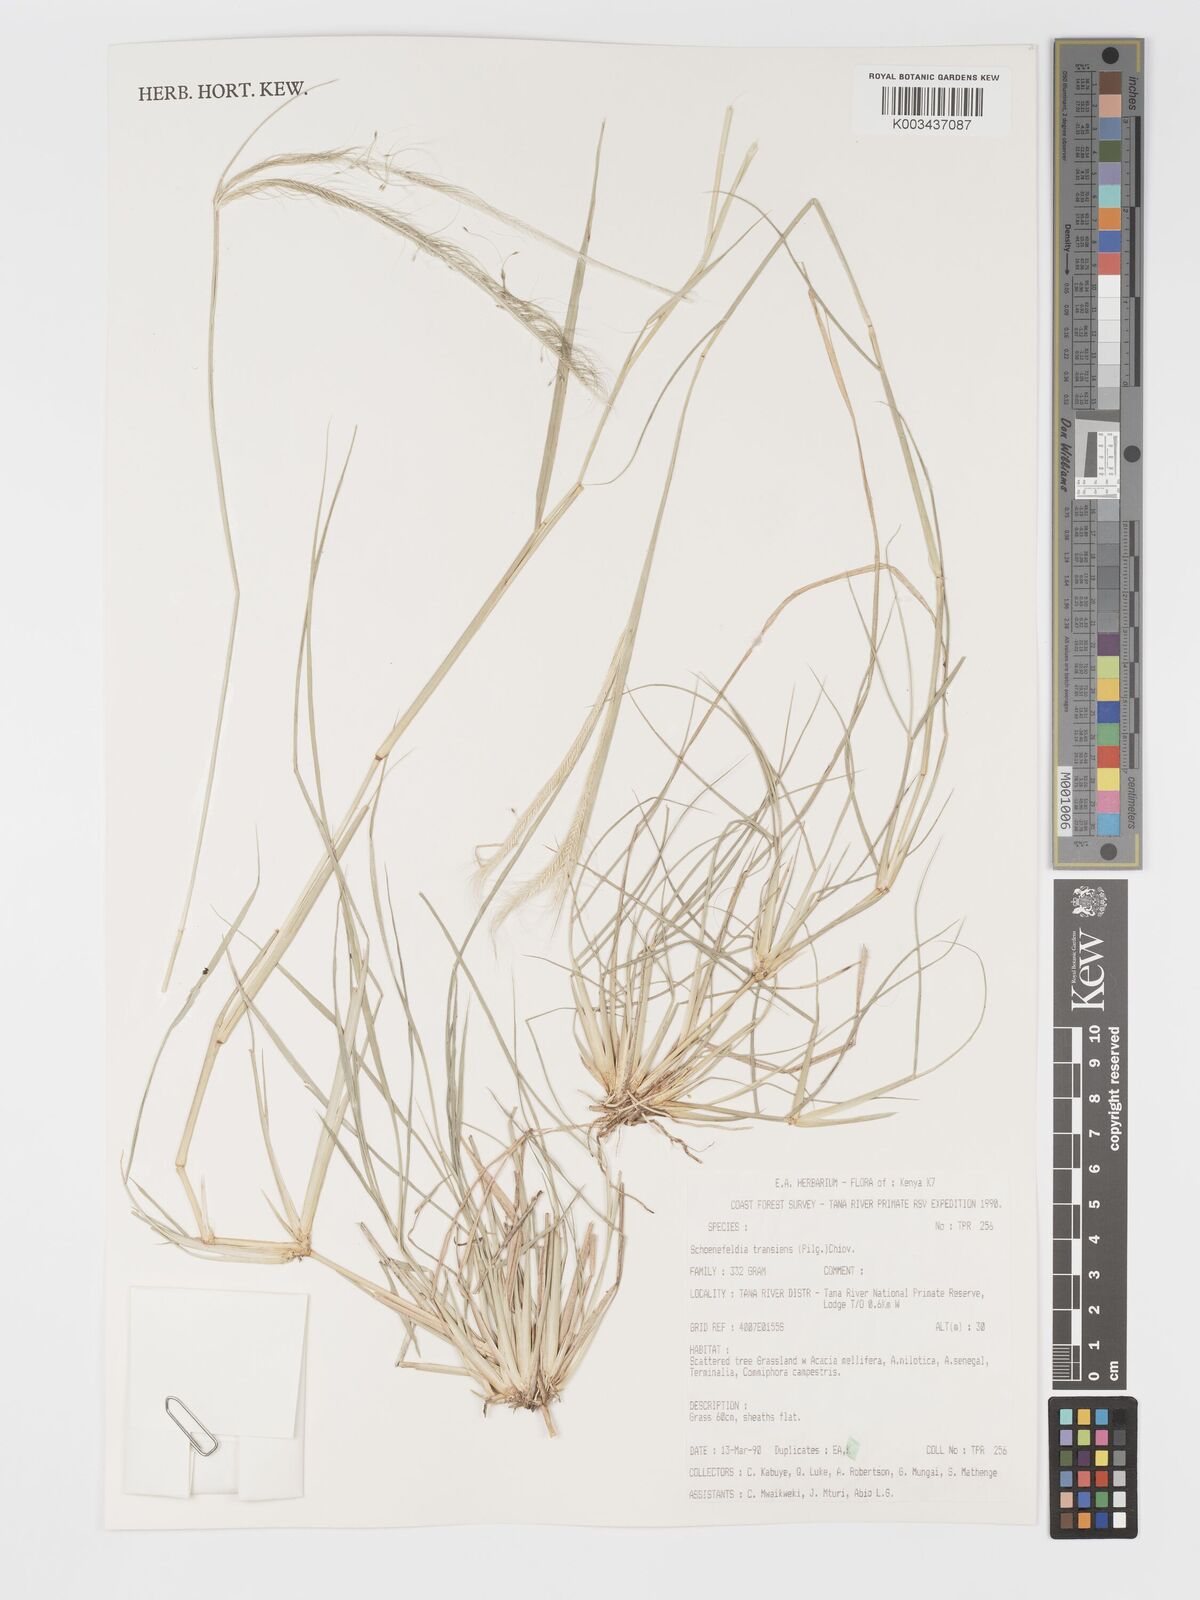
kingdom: Plantae
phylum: Tracheophyta
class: Liliopsida
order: Poales
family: Poaceae
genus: Schoenefeldia
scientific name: Schoenefeldia transiens
